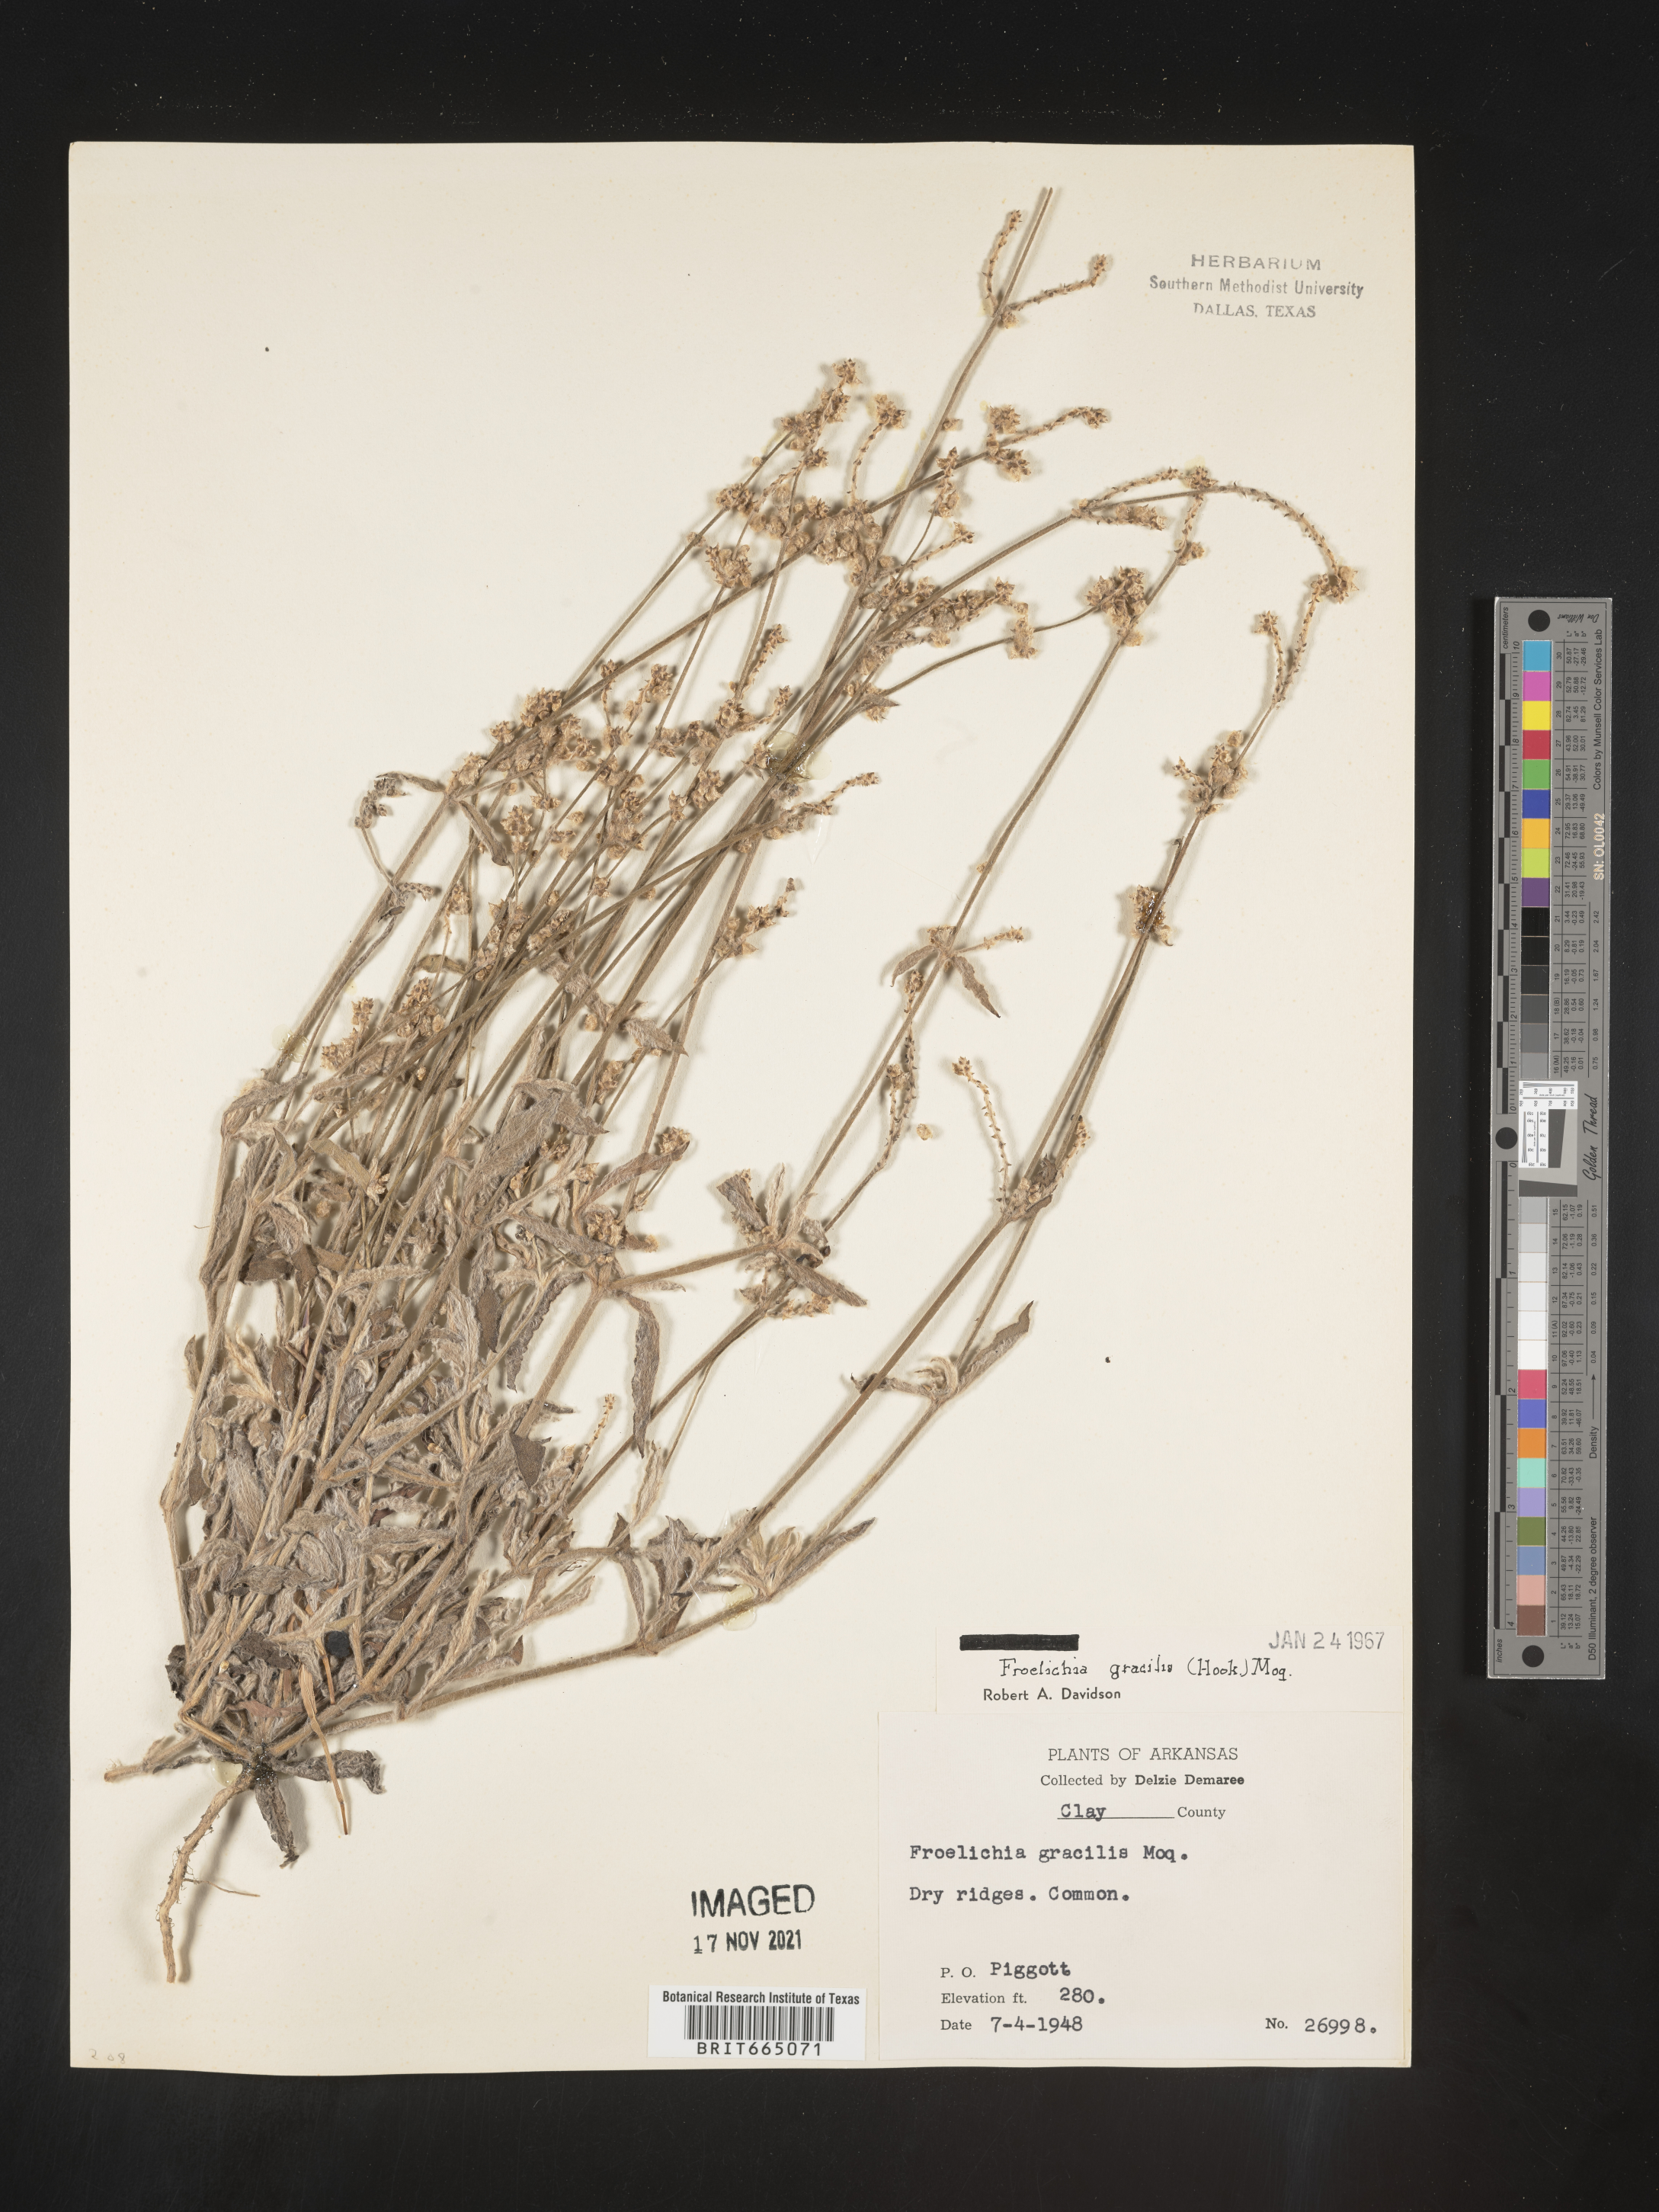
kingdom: Plantae
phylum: Tracheophyta
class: Magnoliopsida
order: Caryophyllales
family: Amaranthaceae
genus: Froelichia
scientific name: Froelichia gracilis
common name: Slender cottonweed
